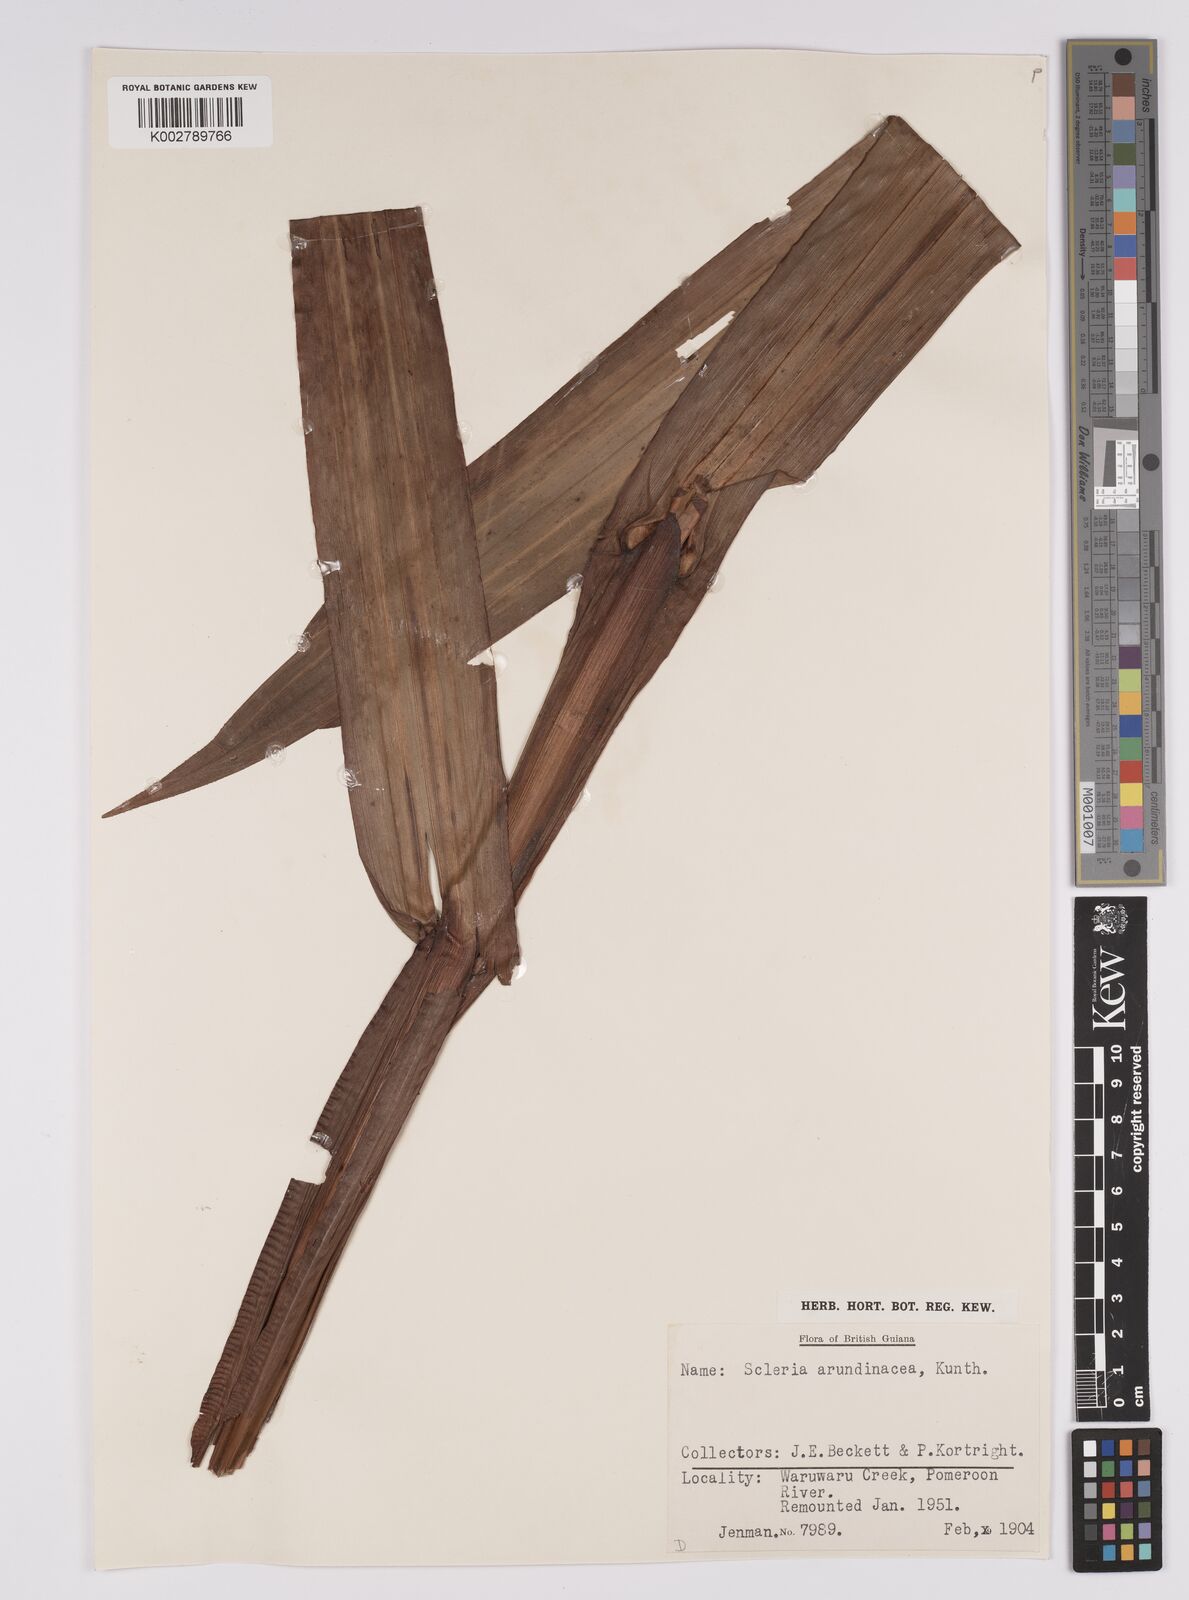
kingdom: Plantae
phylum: Tracheophyta
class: Liliopsida
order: Poales
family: Cyperaceae
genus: Scleria
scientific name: Scleria latifolia
